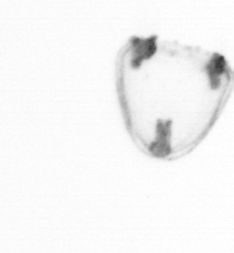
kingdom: Animalia
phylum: Cnidaria
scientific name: Cnidaria
